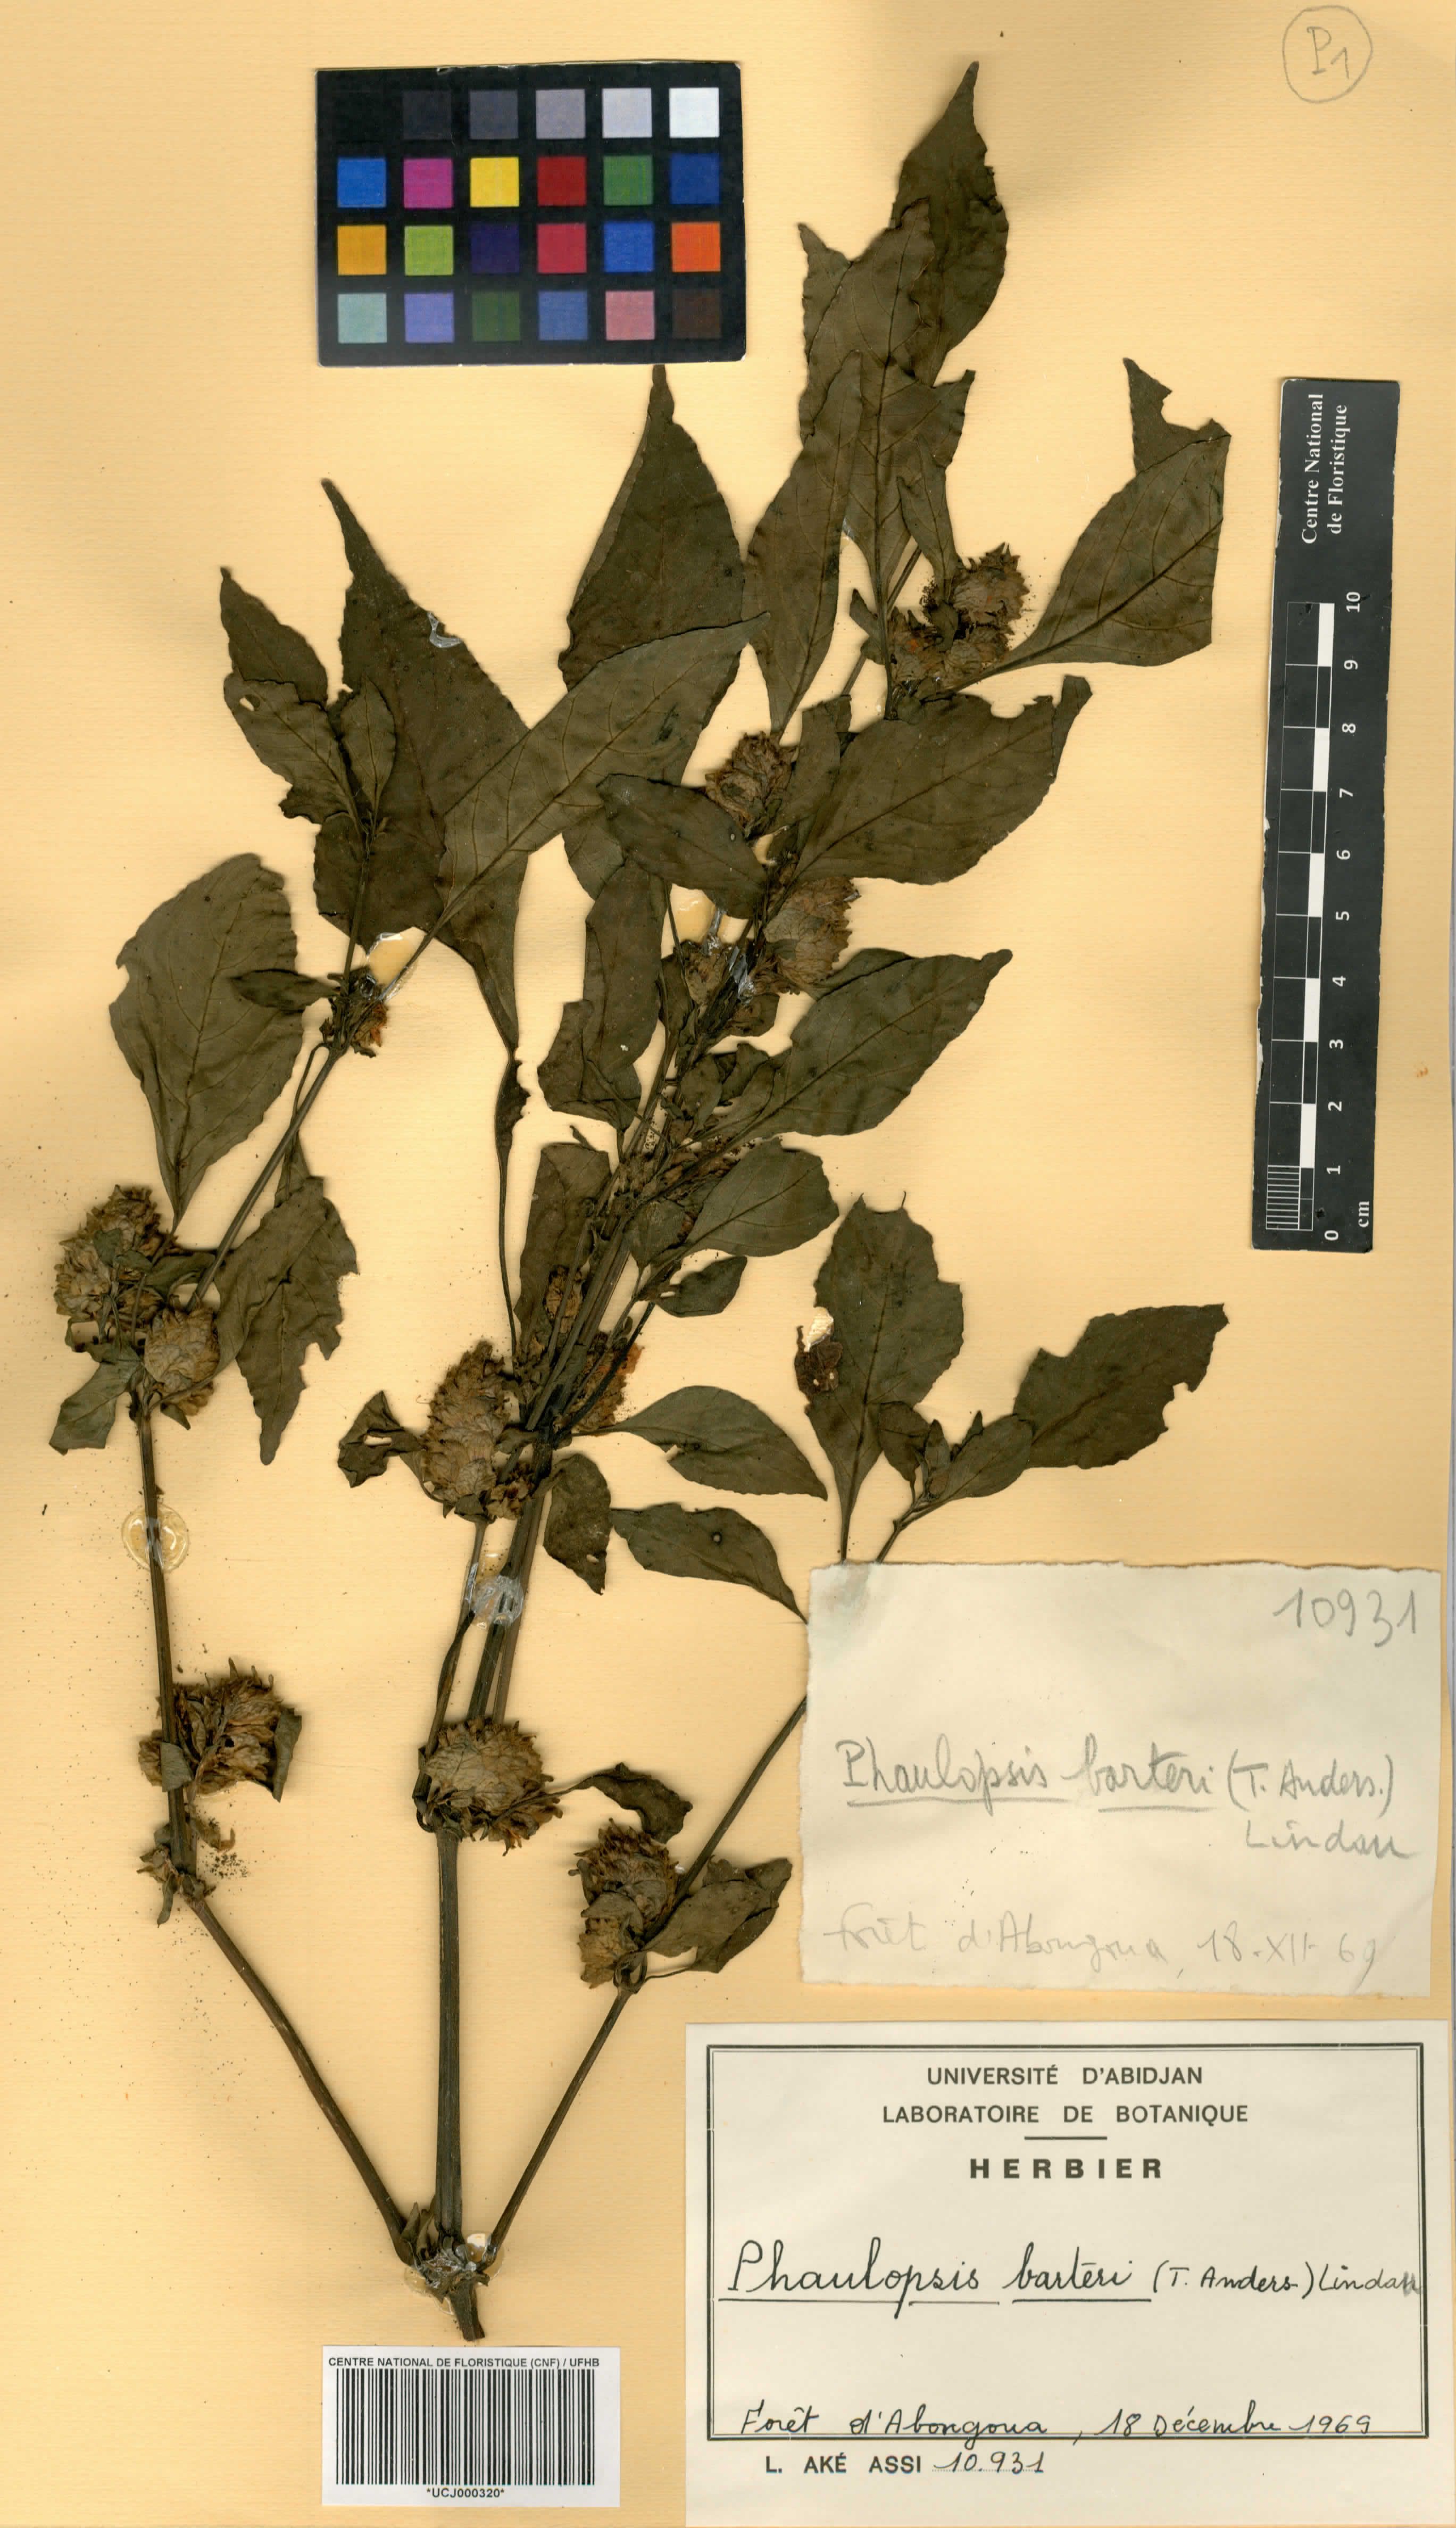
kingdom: Plantae
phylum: Tracheophyta
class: Magnoliopsida
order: Lamiales
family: Acanthaceae
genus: Phaulopsis
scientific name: Phaulopsis barteri
